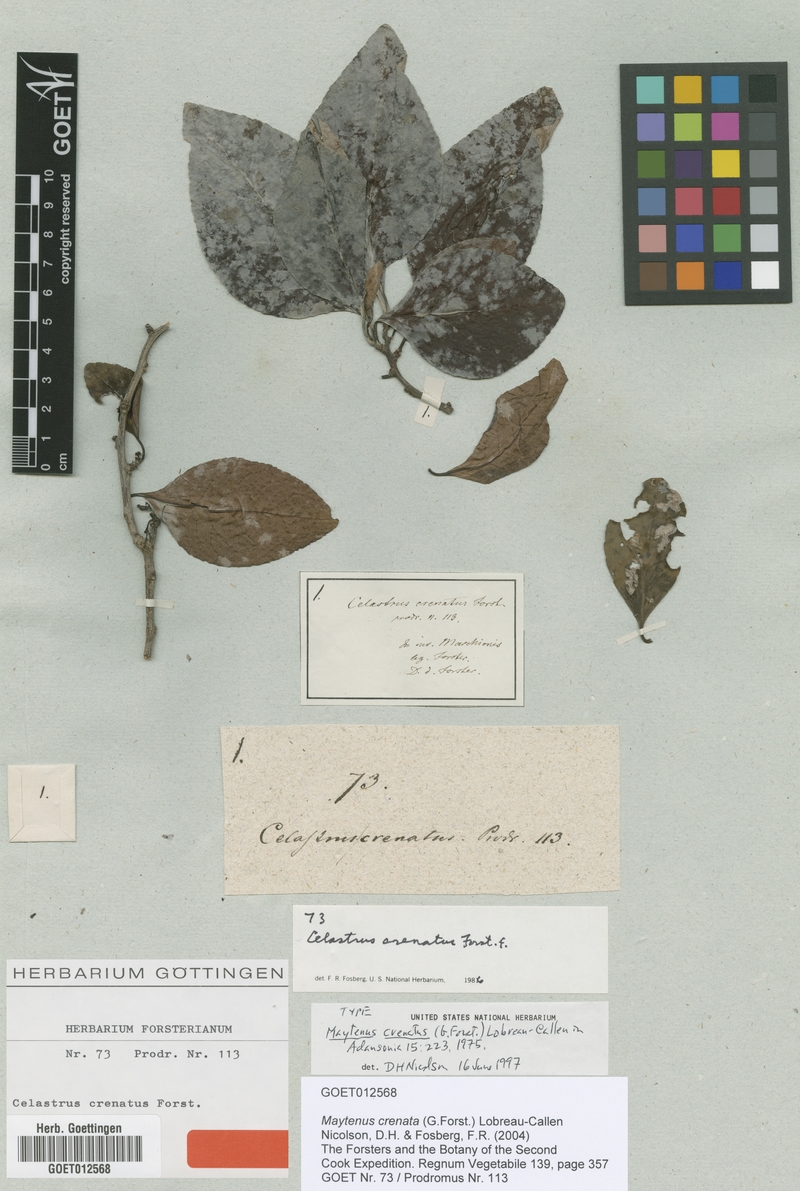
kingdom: Plantae
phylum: Tracheophyta
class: Magnoliopsida
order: Celastrales
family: Celastraceae
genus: Gymnosporia
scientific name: Gymnosporia crenata
